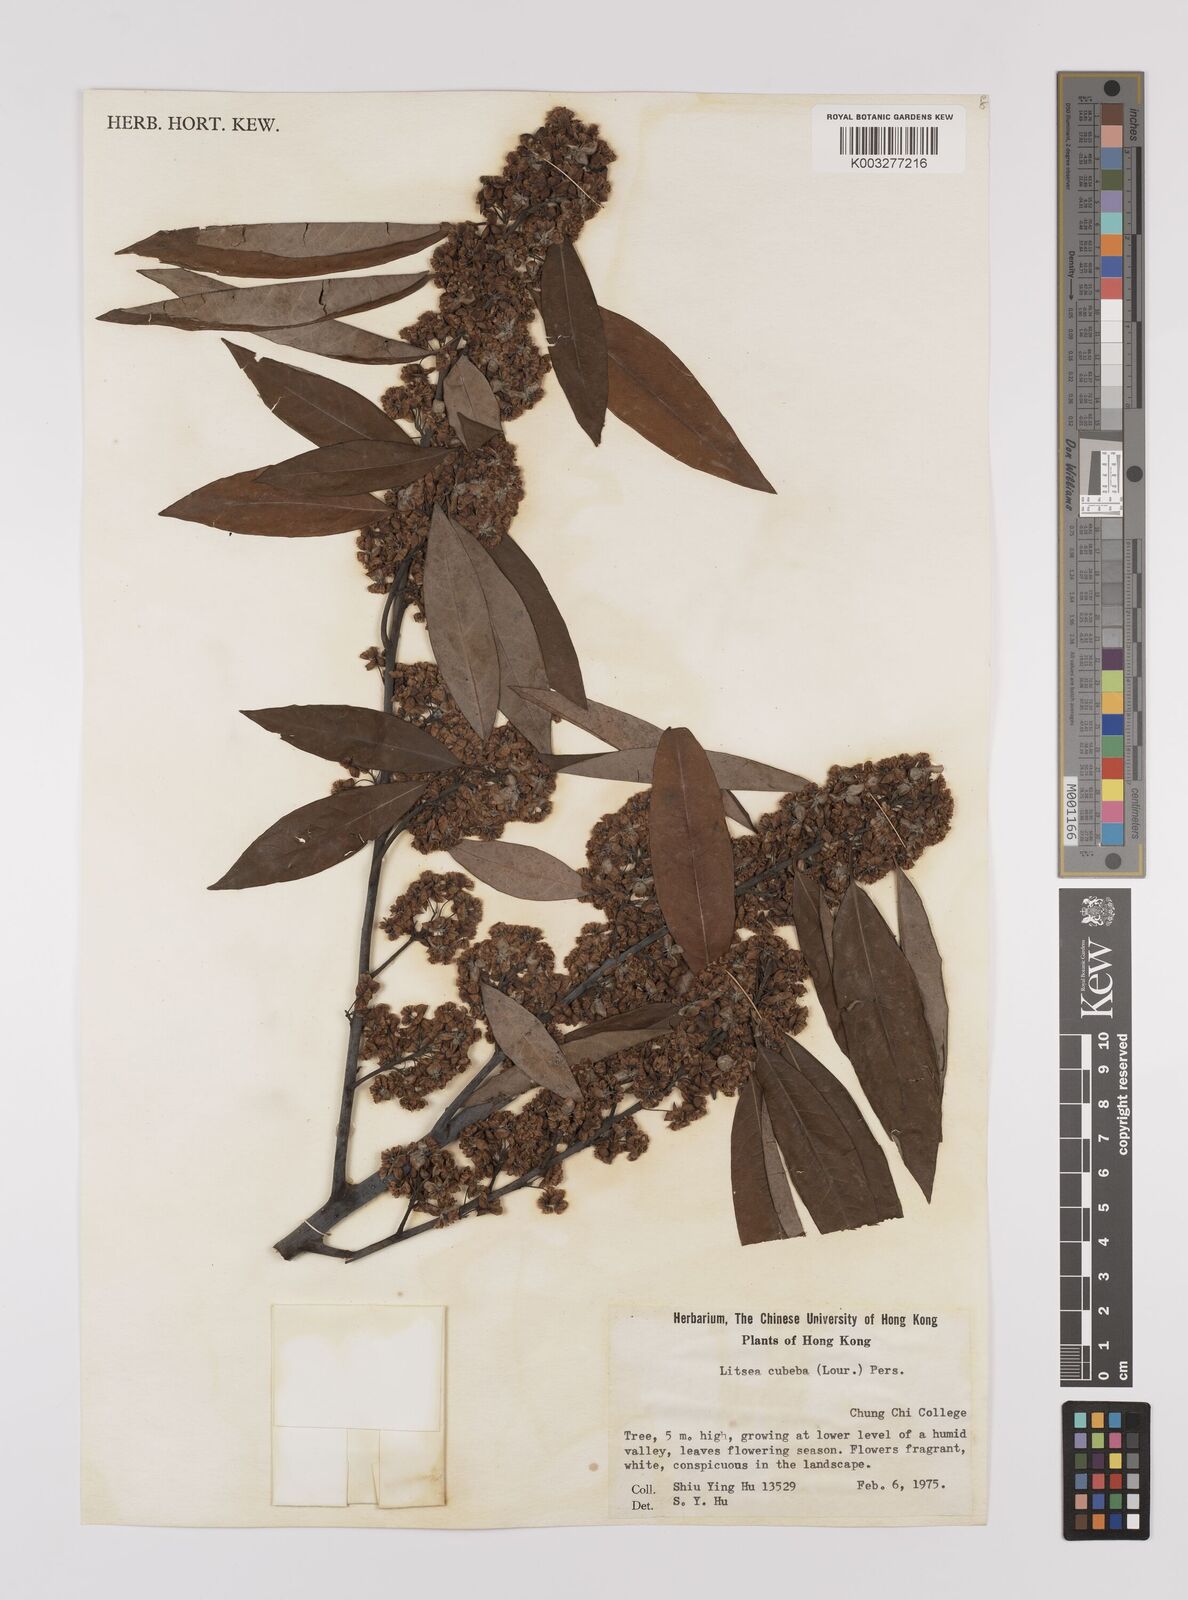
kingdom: Plantae
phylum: Tracheophyta
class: Magnoliopsida
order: Laurales
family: Lauraceae
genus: Litsea
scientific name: Litsea cubeba
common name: Mountain-pepper
